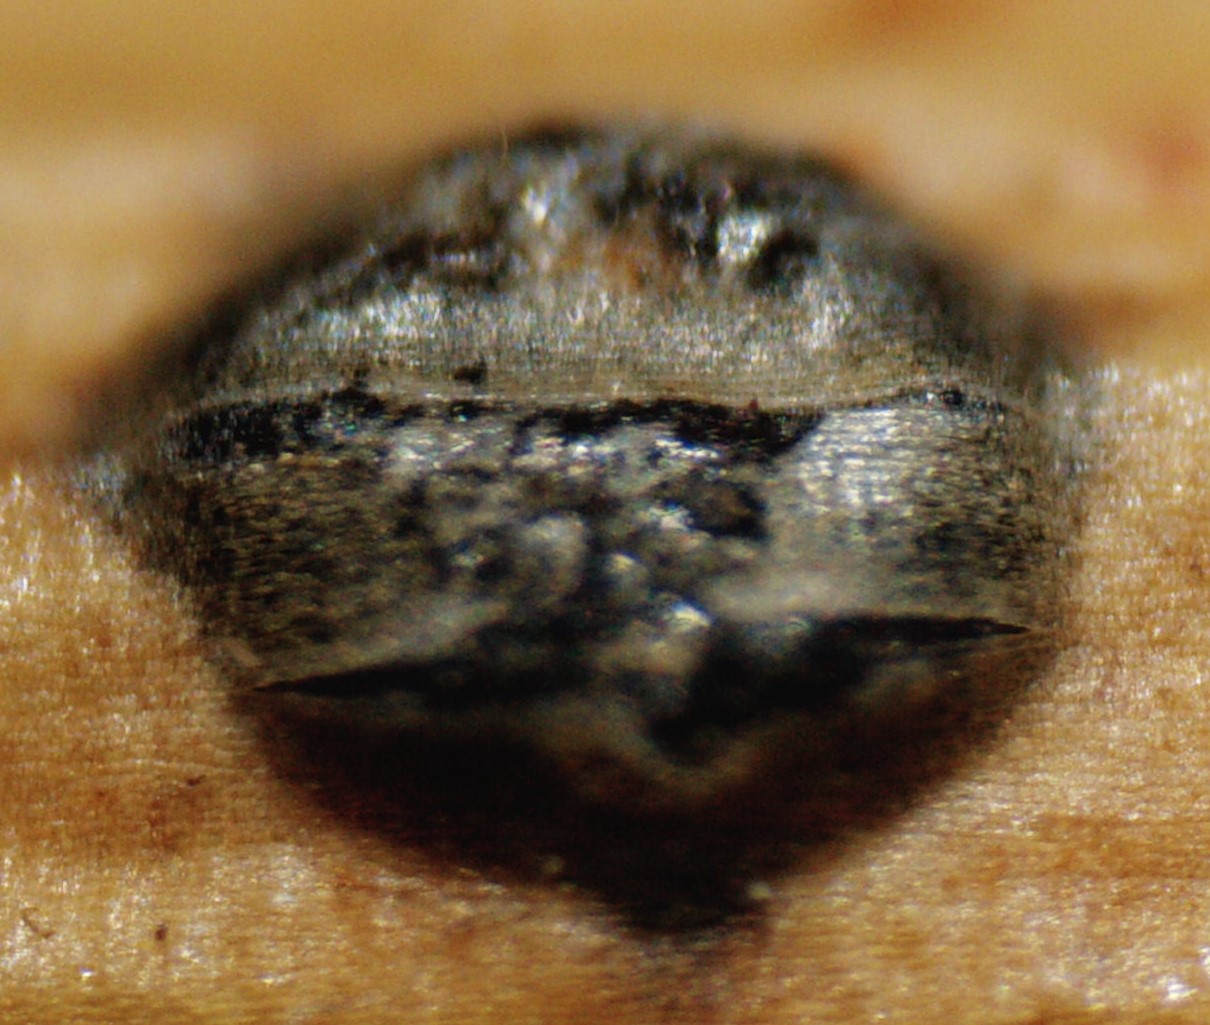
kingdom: Fungi
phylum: Ascomycota
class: Sordariomycetes
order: Diaporthales
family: Gnomoniaceae
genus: Plagiostoma
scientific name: Plagiostoma salicellum
